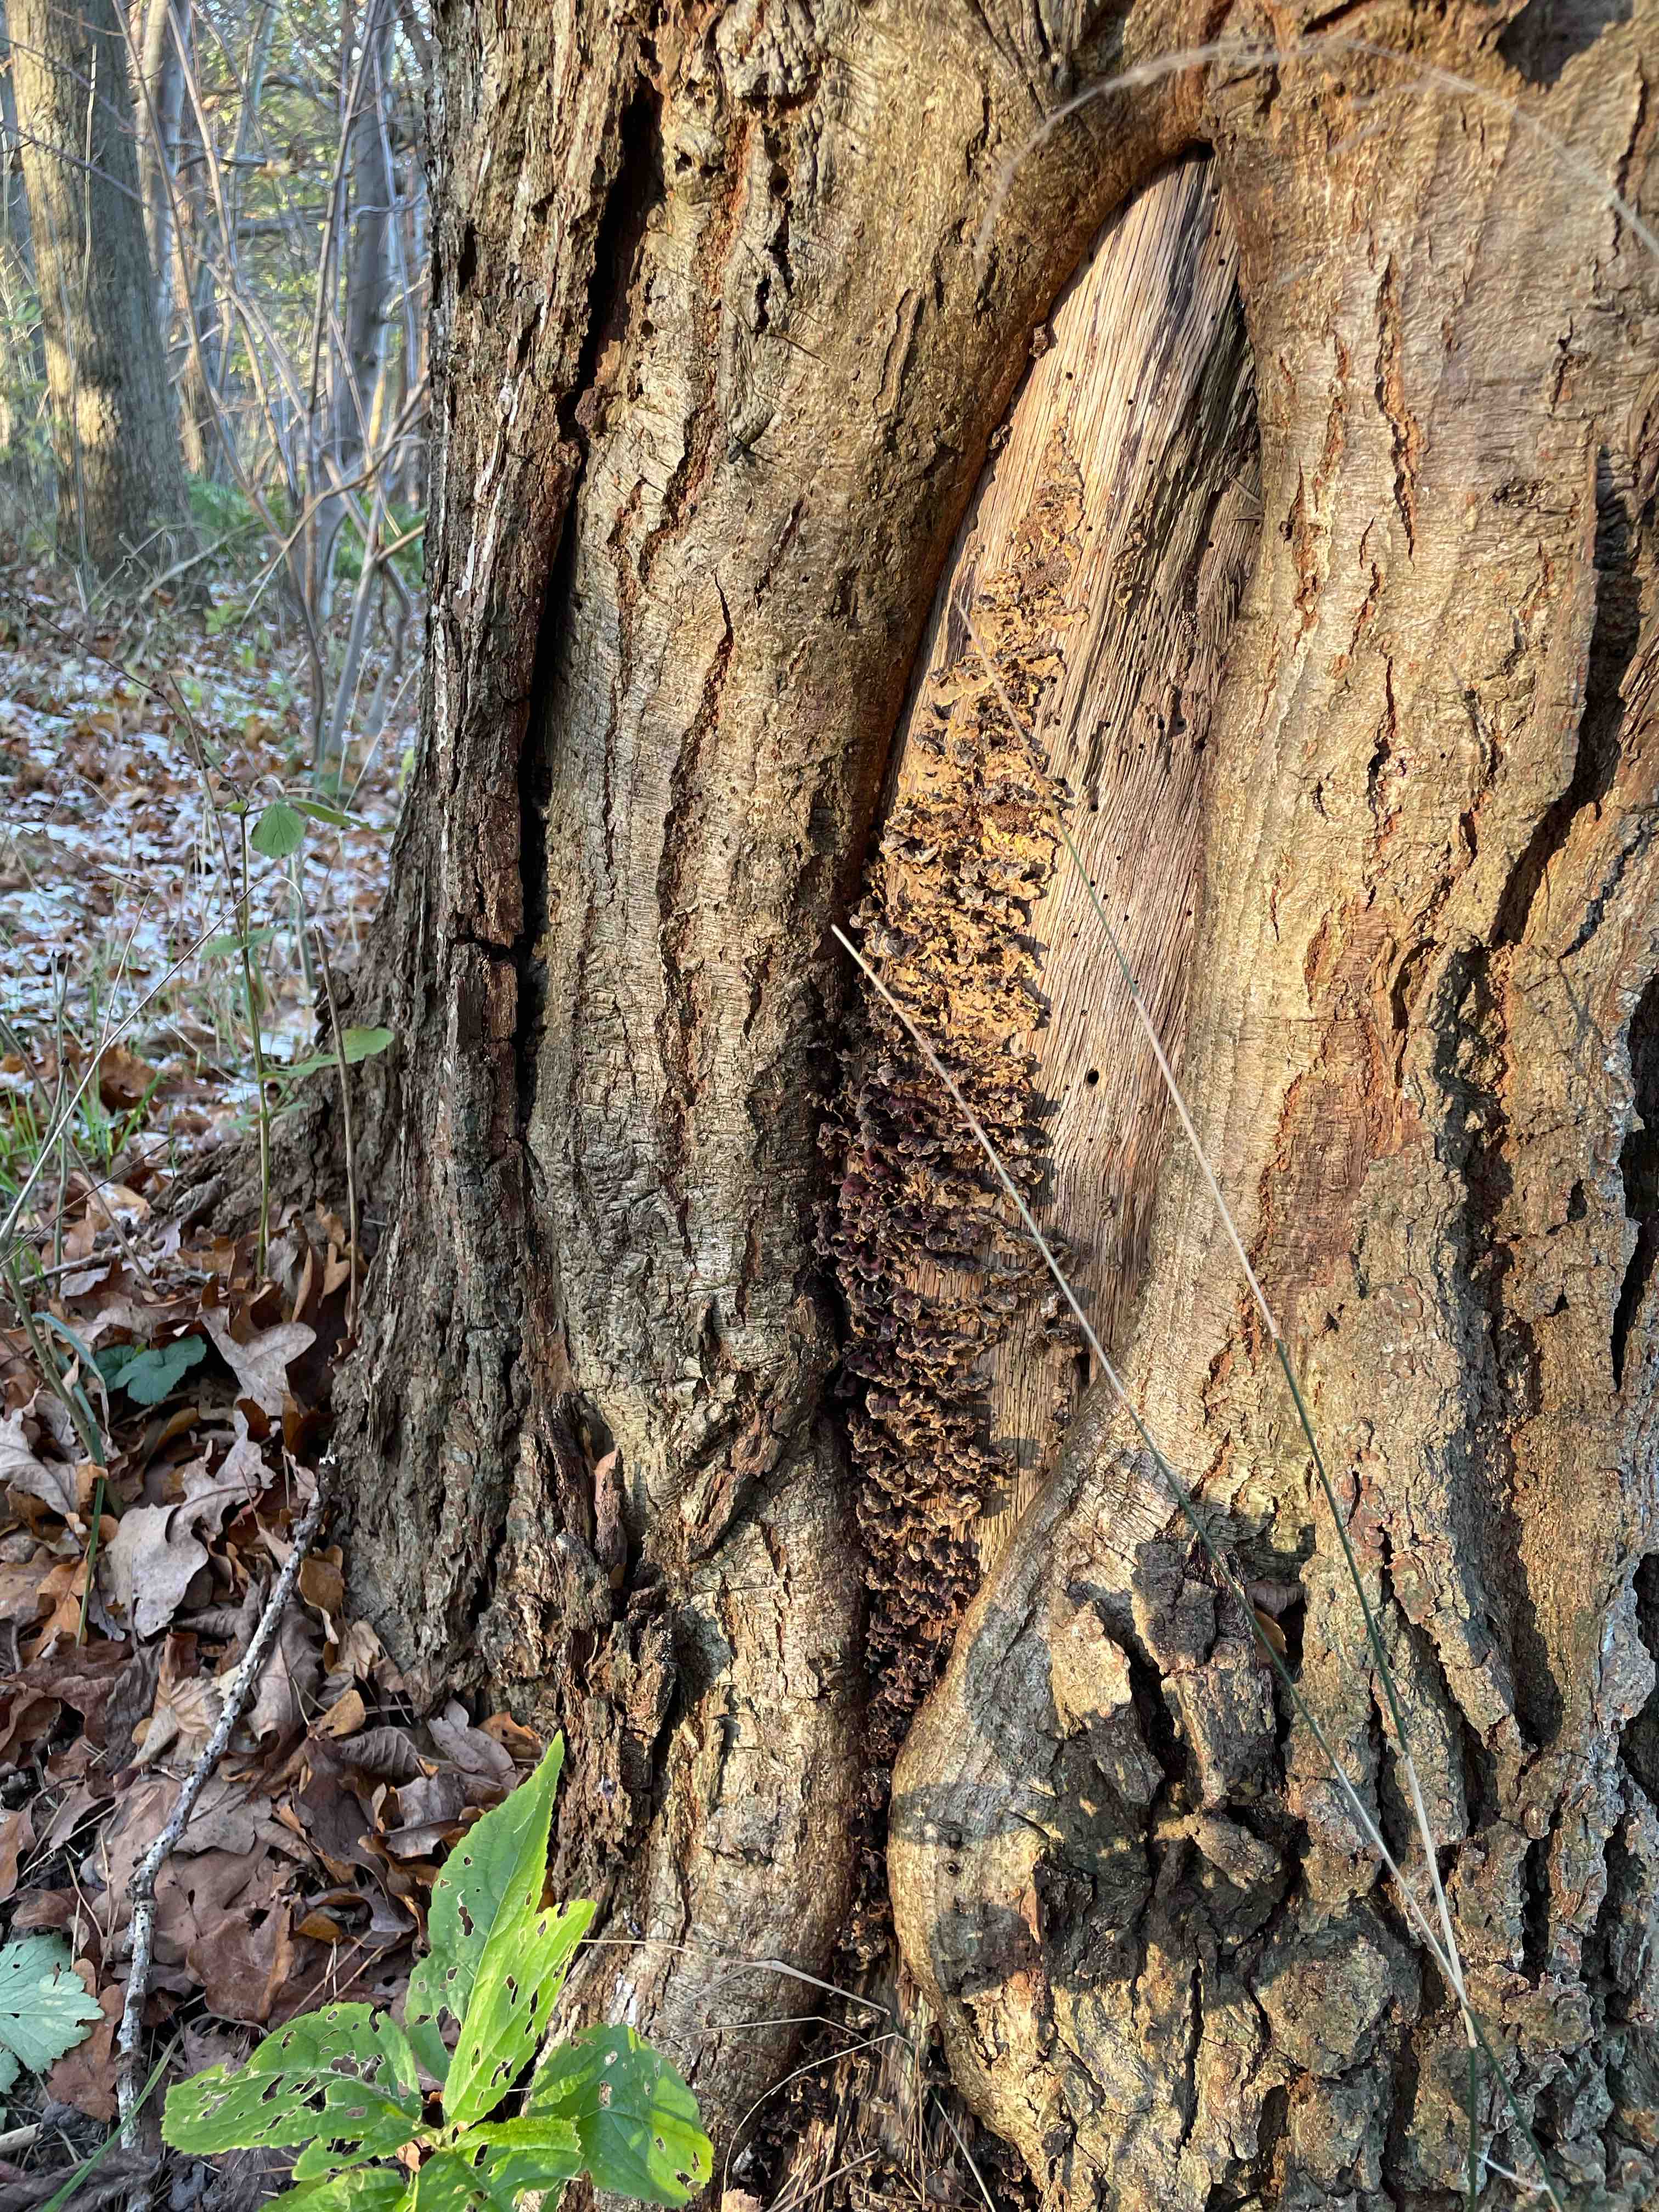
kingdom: Fungi
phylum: Basidiomycota
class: Agaricomycetes
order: Russulales
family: Stereaceae
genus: Stereum
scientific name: Stereum hirsutum
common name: håret lædersvamp
